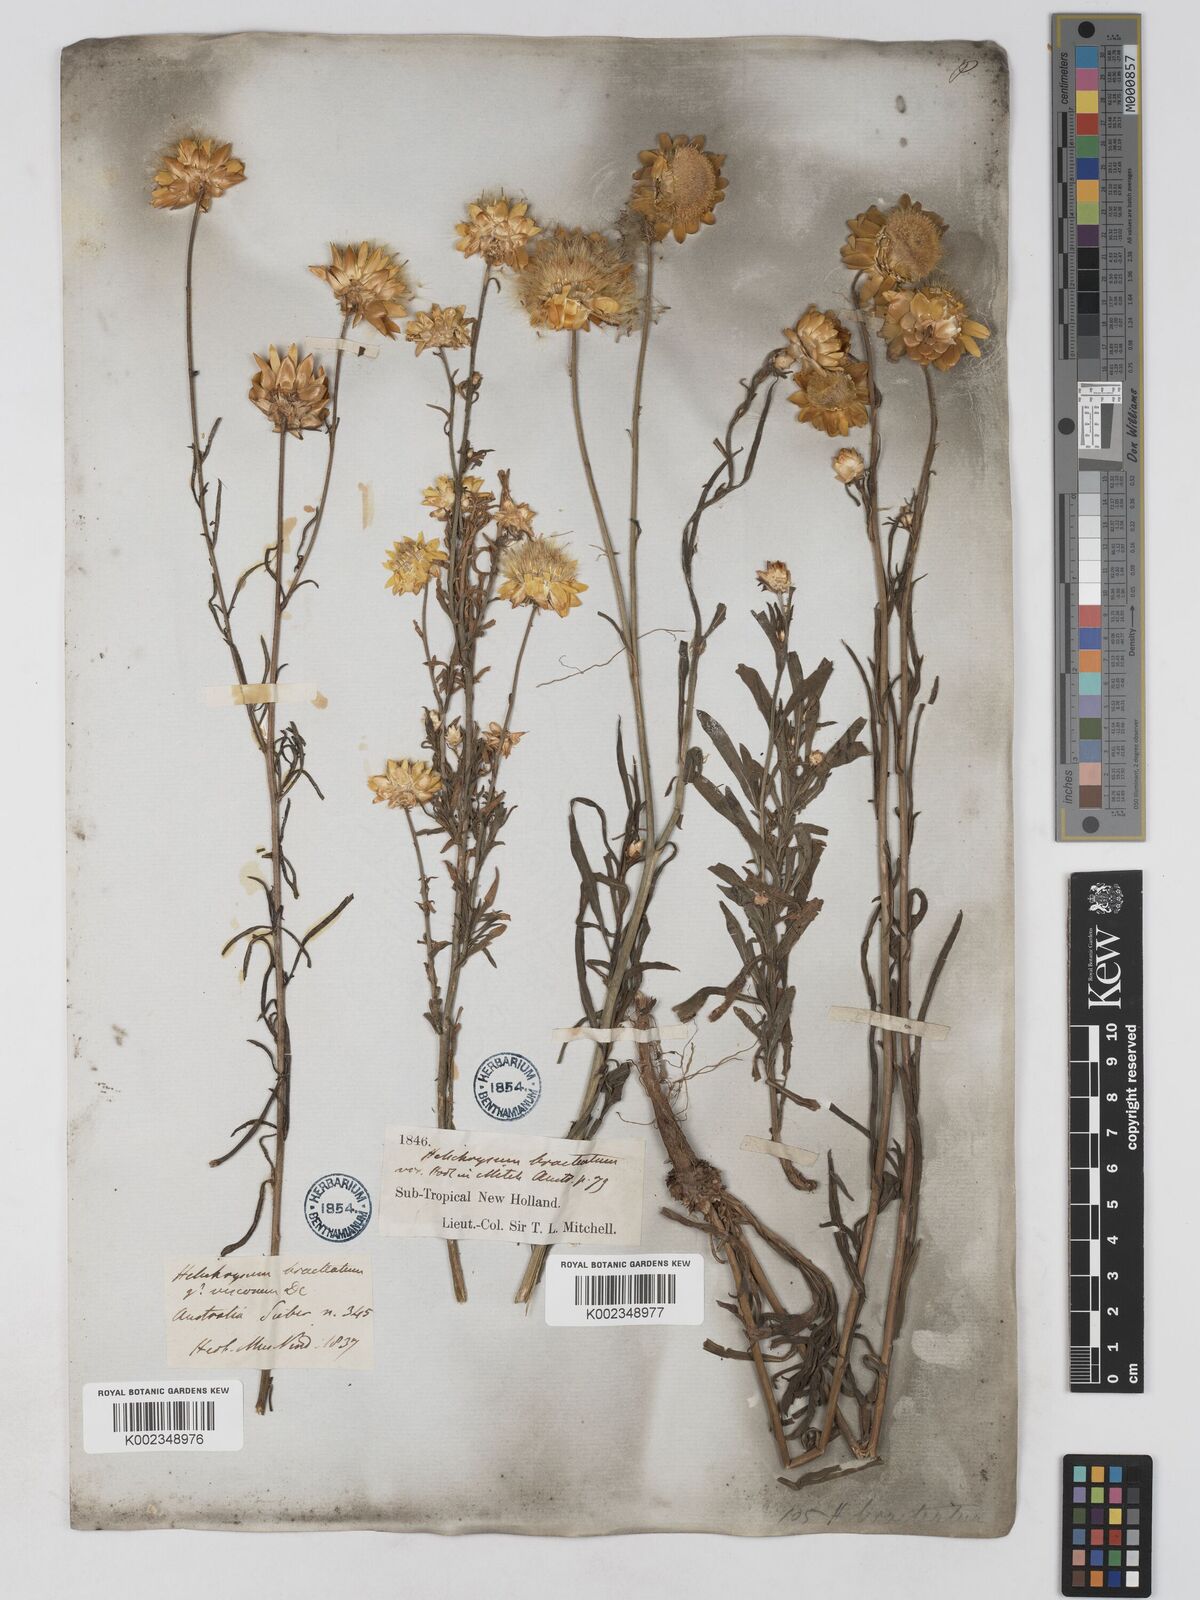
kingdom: Plantae
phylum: Tracheophyta
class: Magnoliopsida
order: Asterales
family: Asteraceae
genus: Xerochrysum
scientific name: Xerochrysum bracteatum
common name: Bracted strawflower
